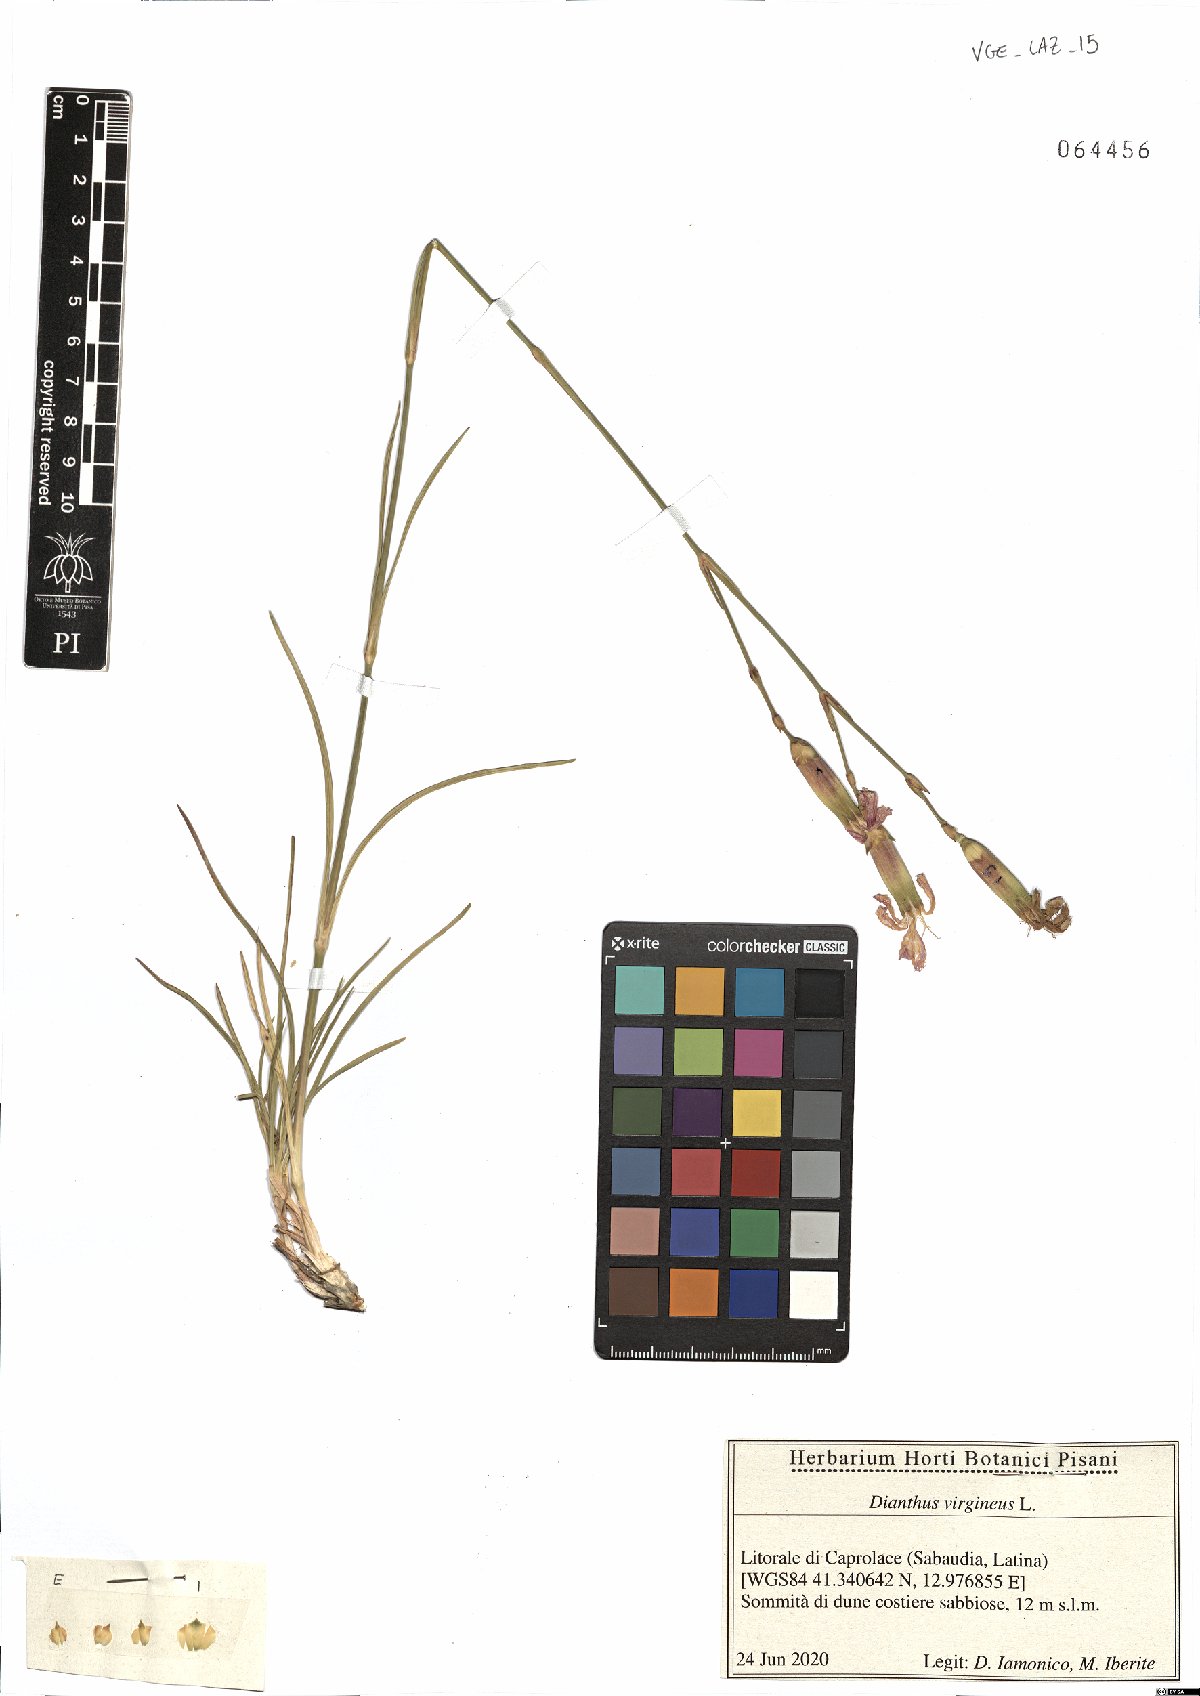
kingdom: Plantae
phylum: Tracheophyta
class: Magnoliopsida
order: Caryophyllales
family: Caryophyllaceae
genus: Dianthus
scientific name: Dianthus virgineus
